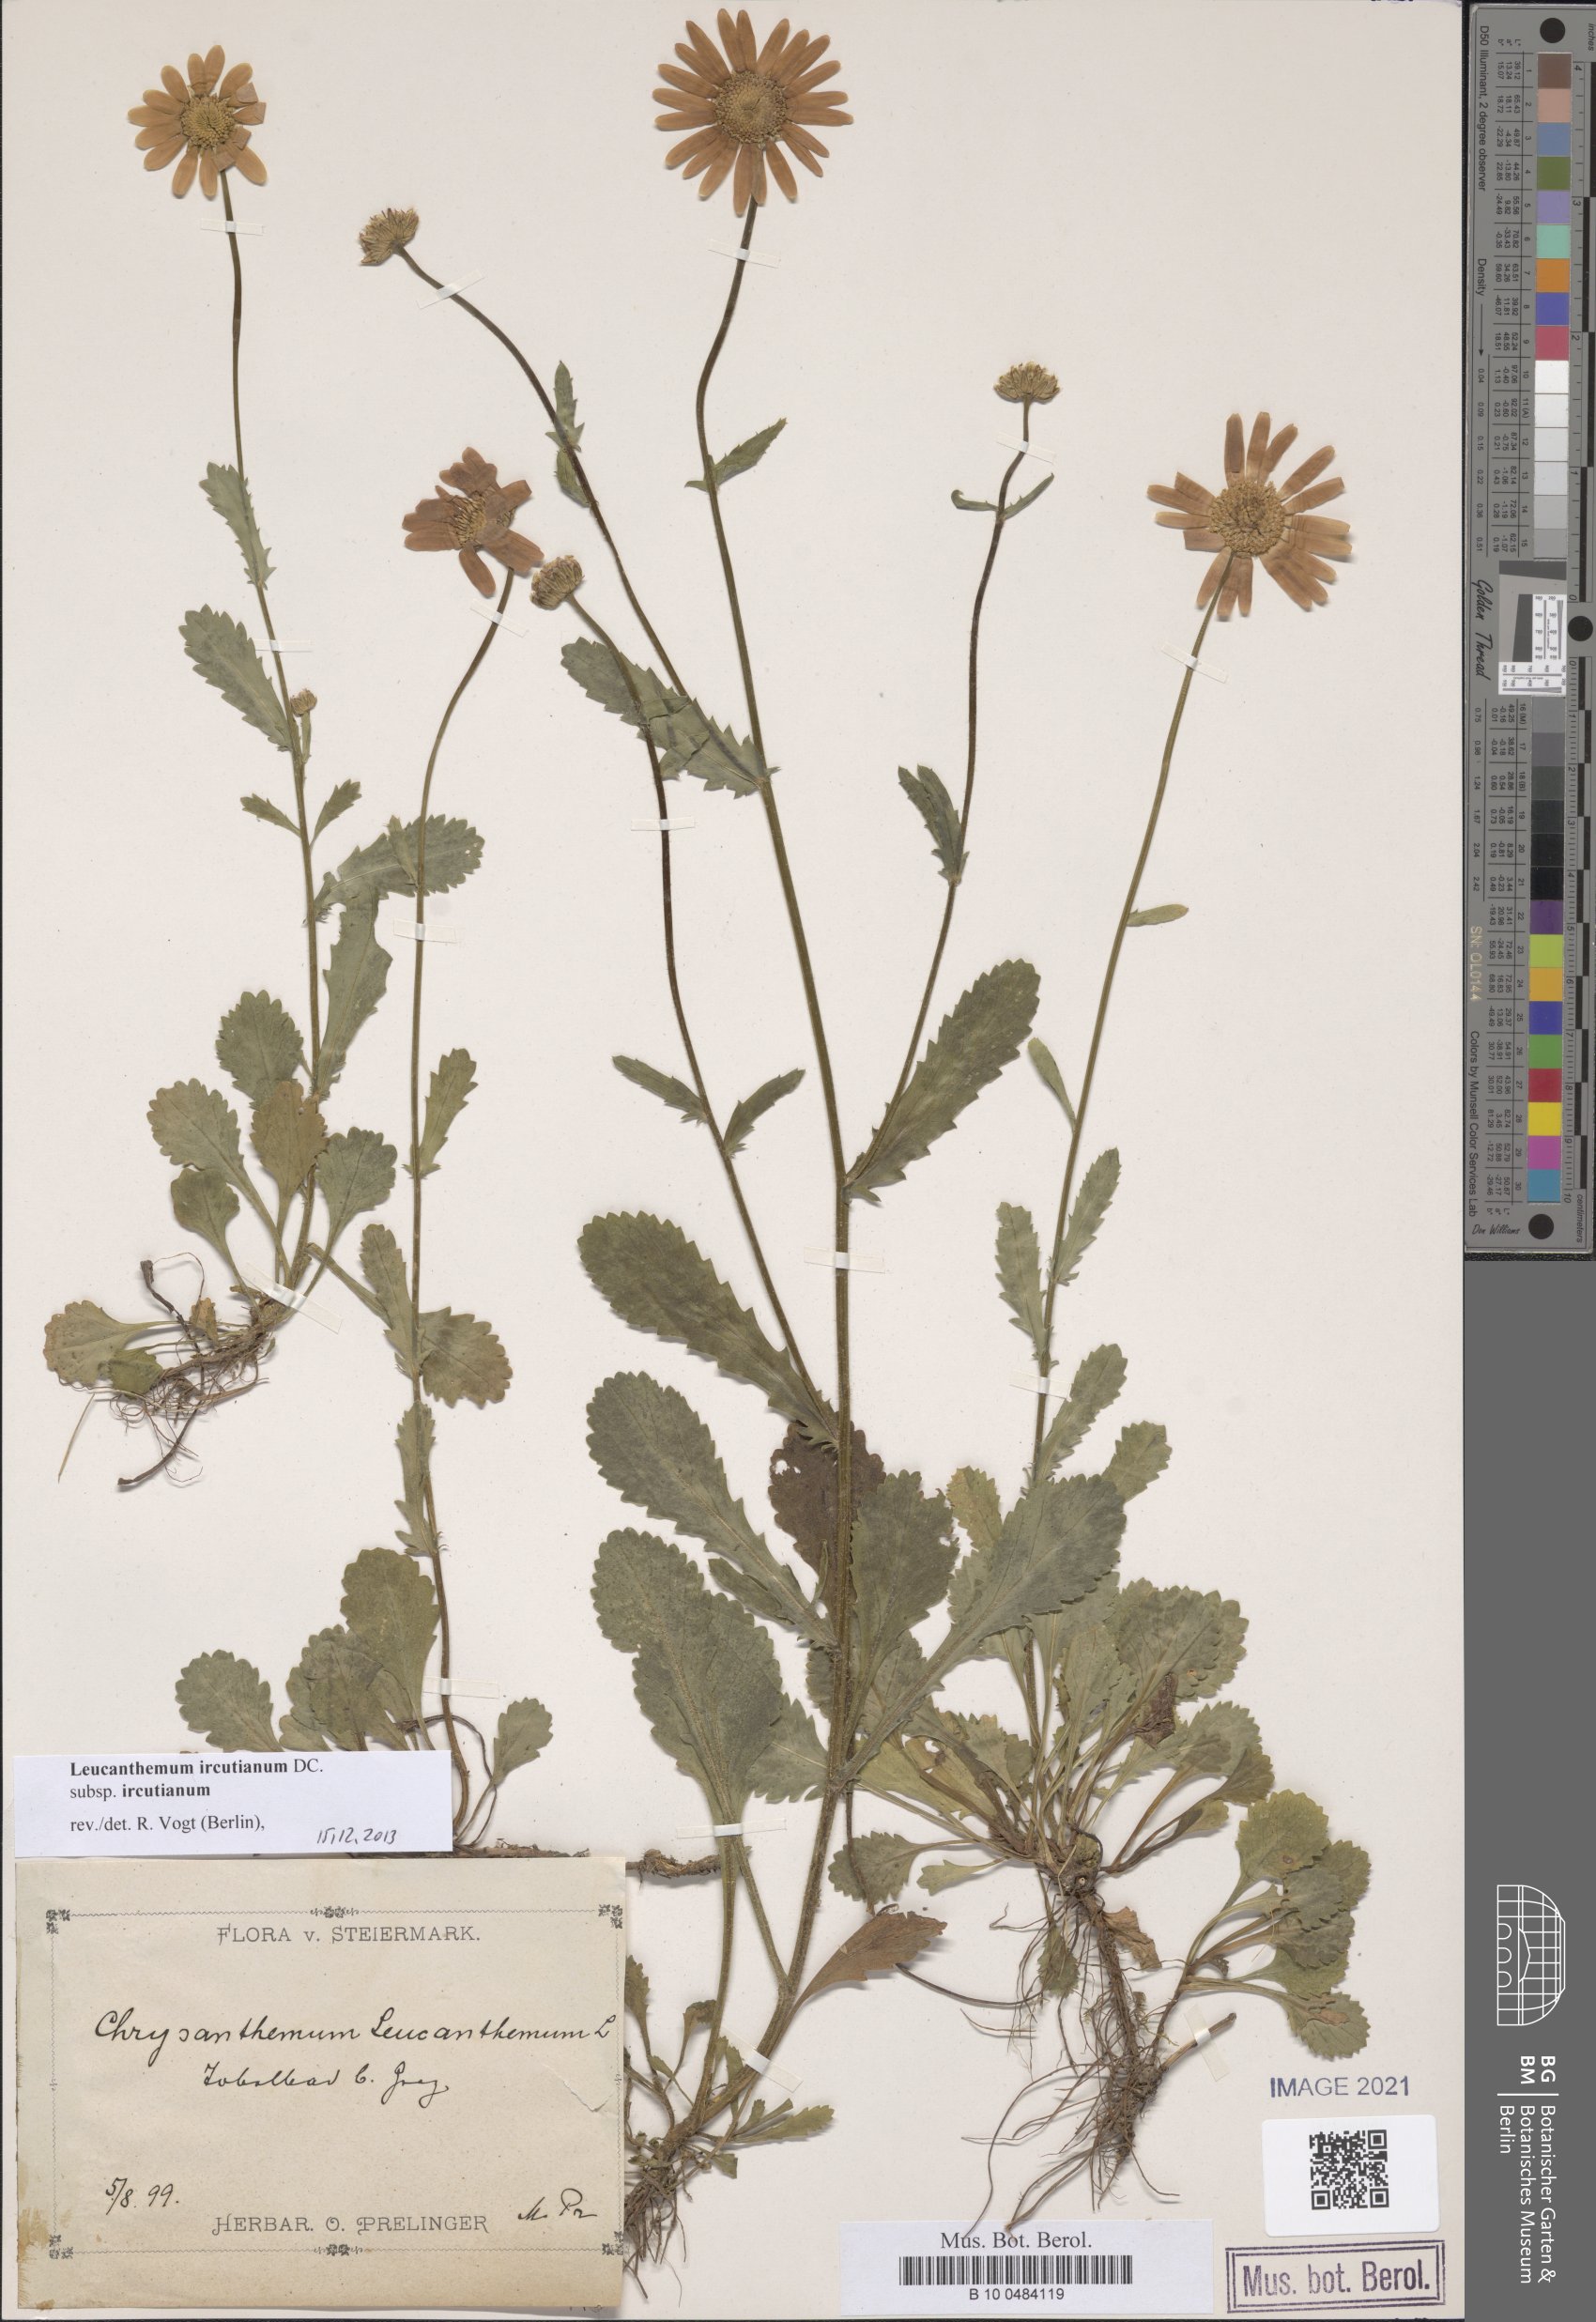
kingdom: Plantae
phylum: Tracheophyta
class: Magnoliopsida
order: Asterales
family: Asteraceae
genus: Leucanthemum
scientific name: Leucanthemum ircutianum
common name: Daisy
